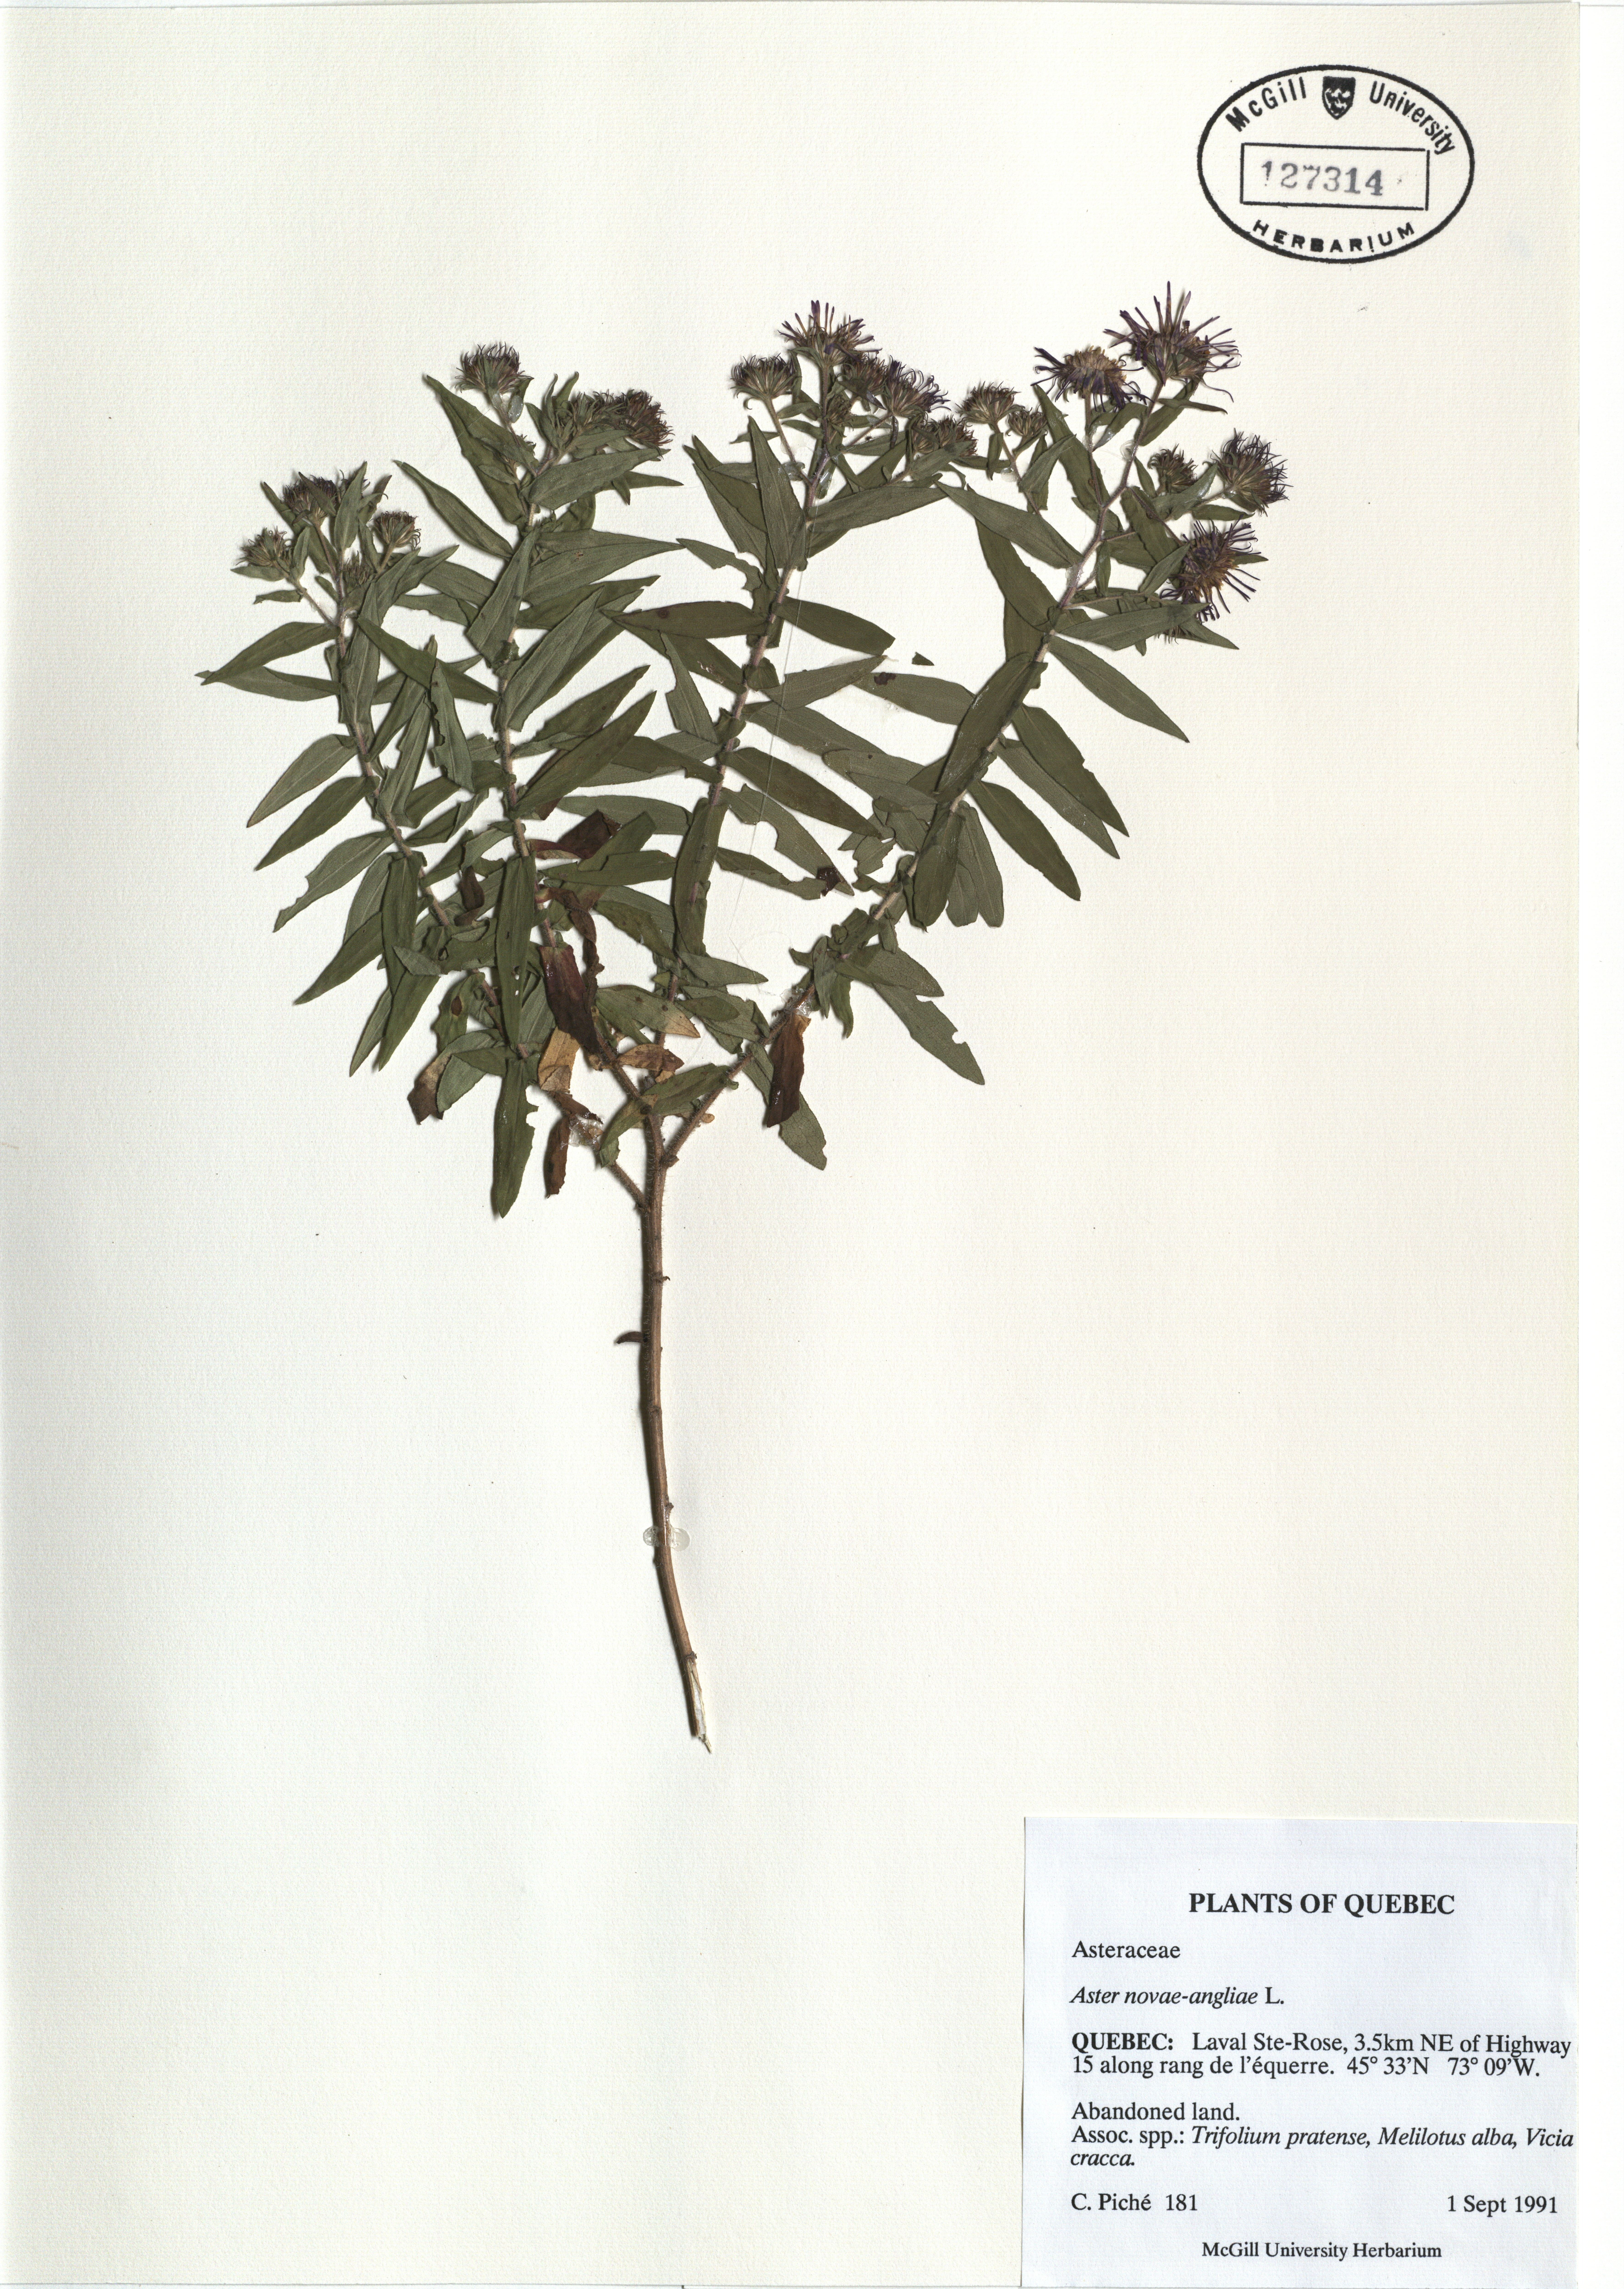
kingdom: Plantae
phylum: Tracheophyta
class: Magnoliopsida
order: Asterales
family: Asteraceae
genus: Symphyotrichum
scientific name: Symphyotrichum novae-angliae
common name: Michaelmas daisy
